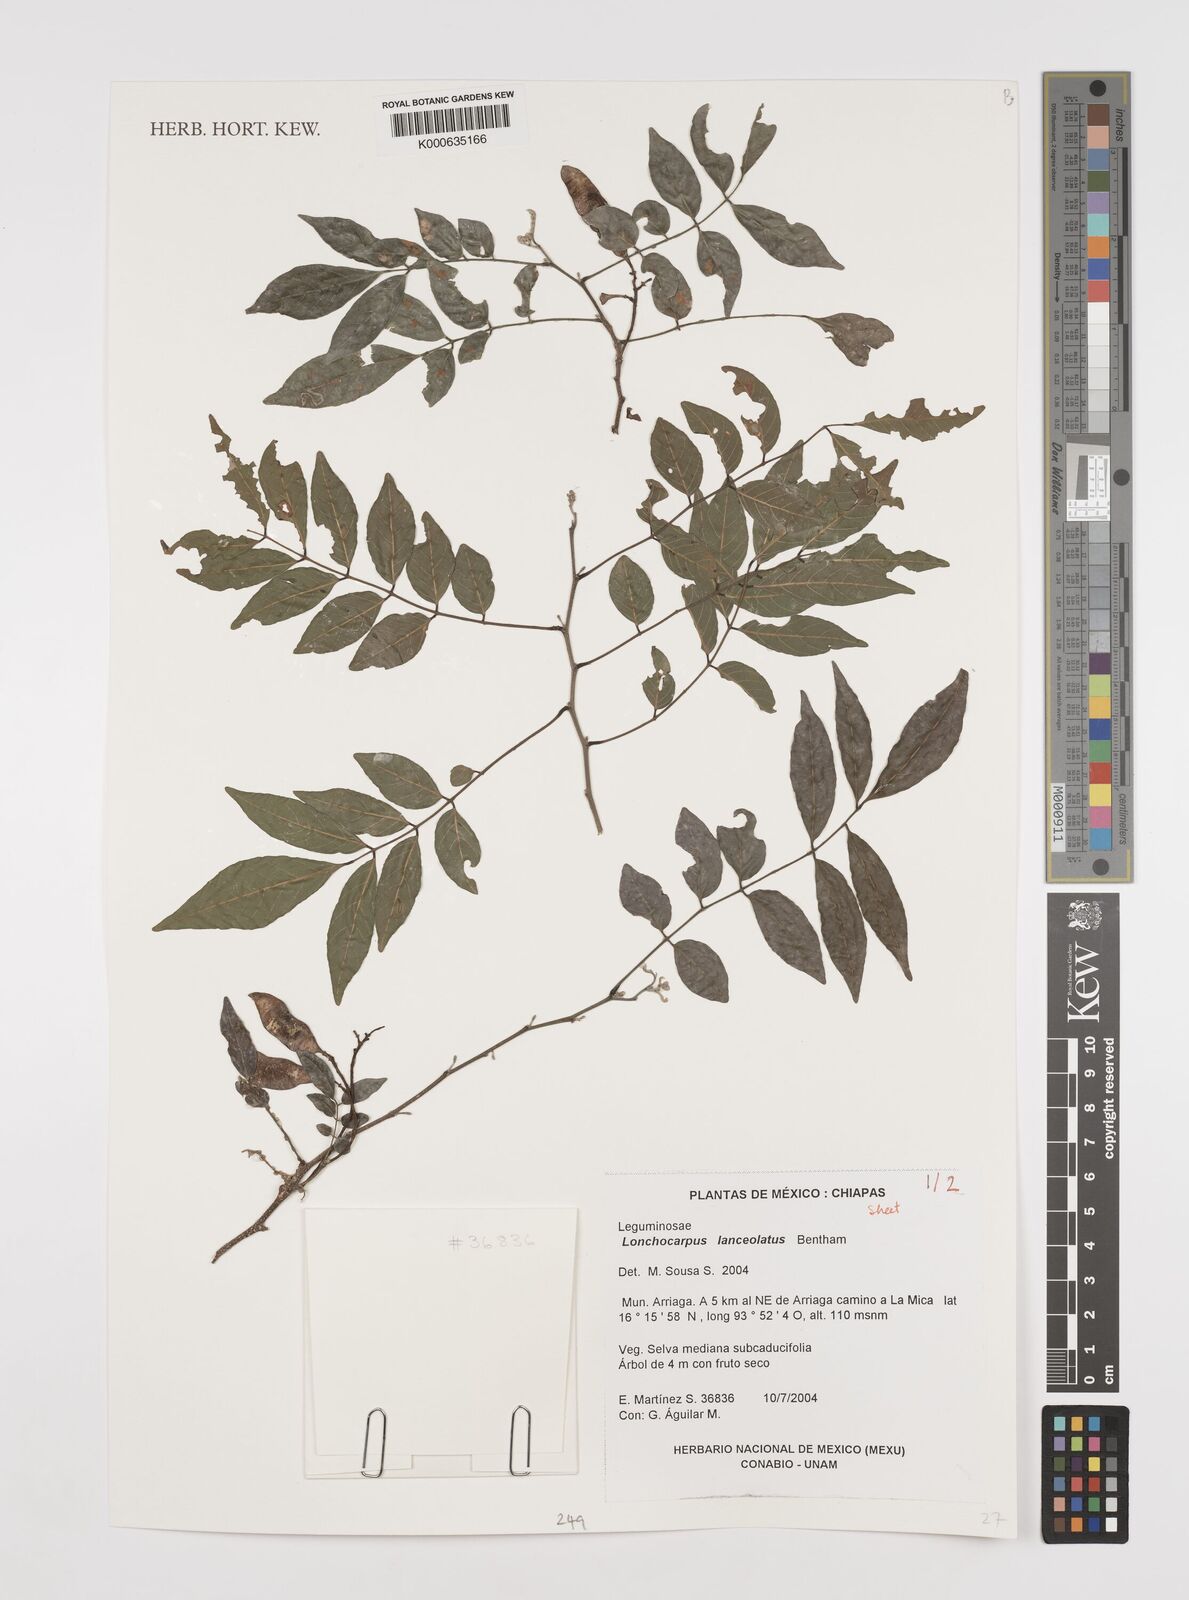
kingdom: Plantae
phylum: Tracheophyta
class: Magnoliopsida
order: Fabales
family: Fabaceae
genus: Lonchocarpus
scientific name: Lonchocarpus lanceolatus
